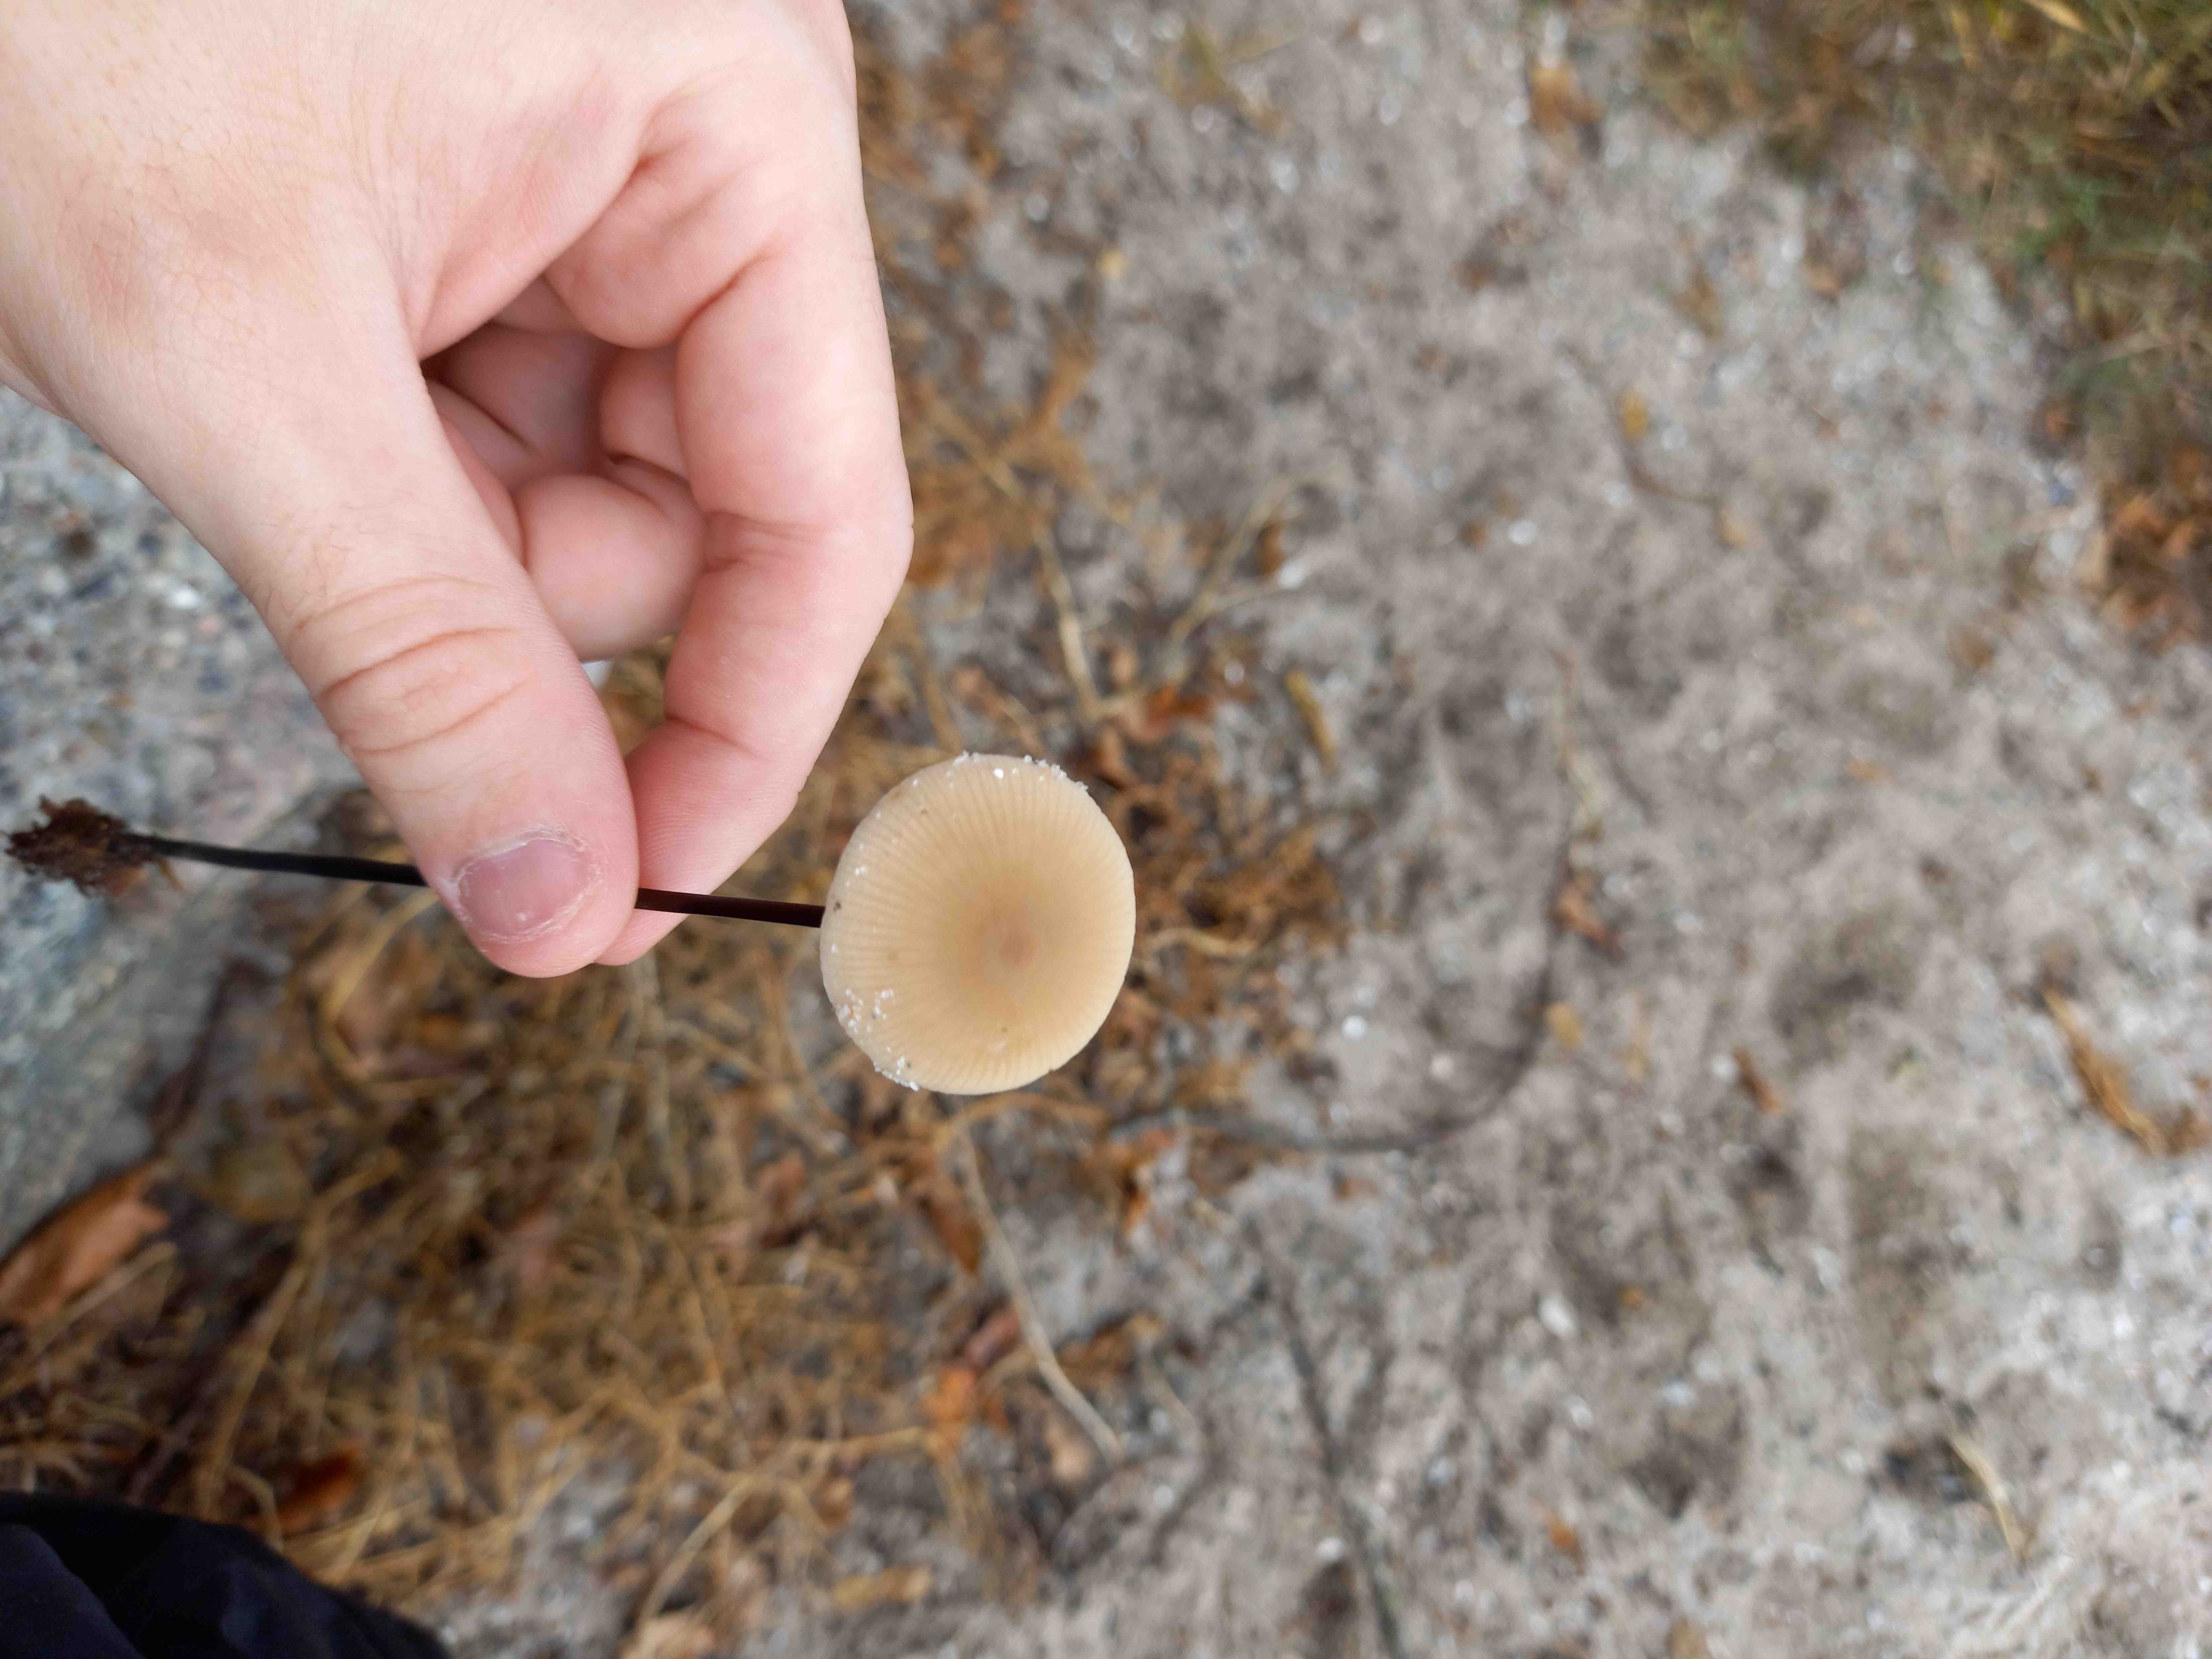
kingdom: Fungi
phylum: Basidiomycota
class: Agaricomycetes
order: Agaricales
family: Omphalotaceae
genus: Mycetinis
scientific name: Mycetinis alliaceus
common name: stor løghat
